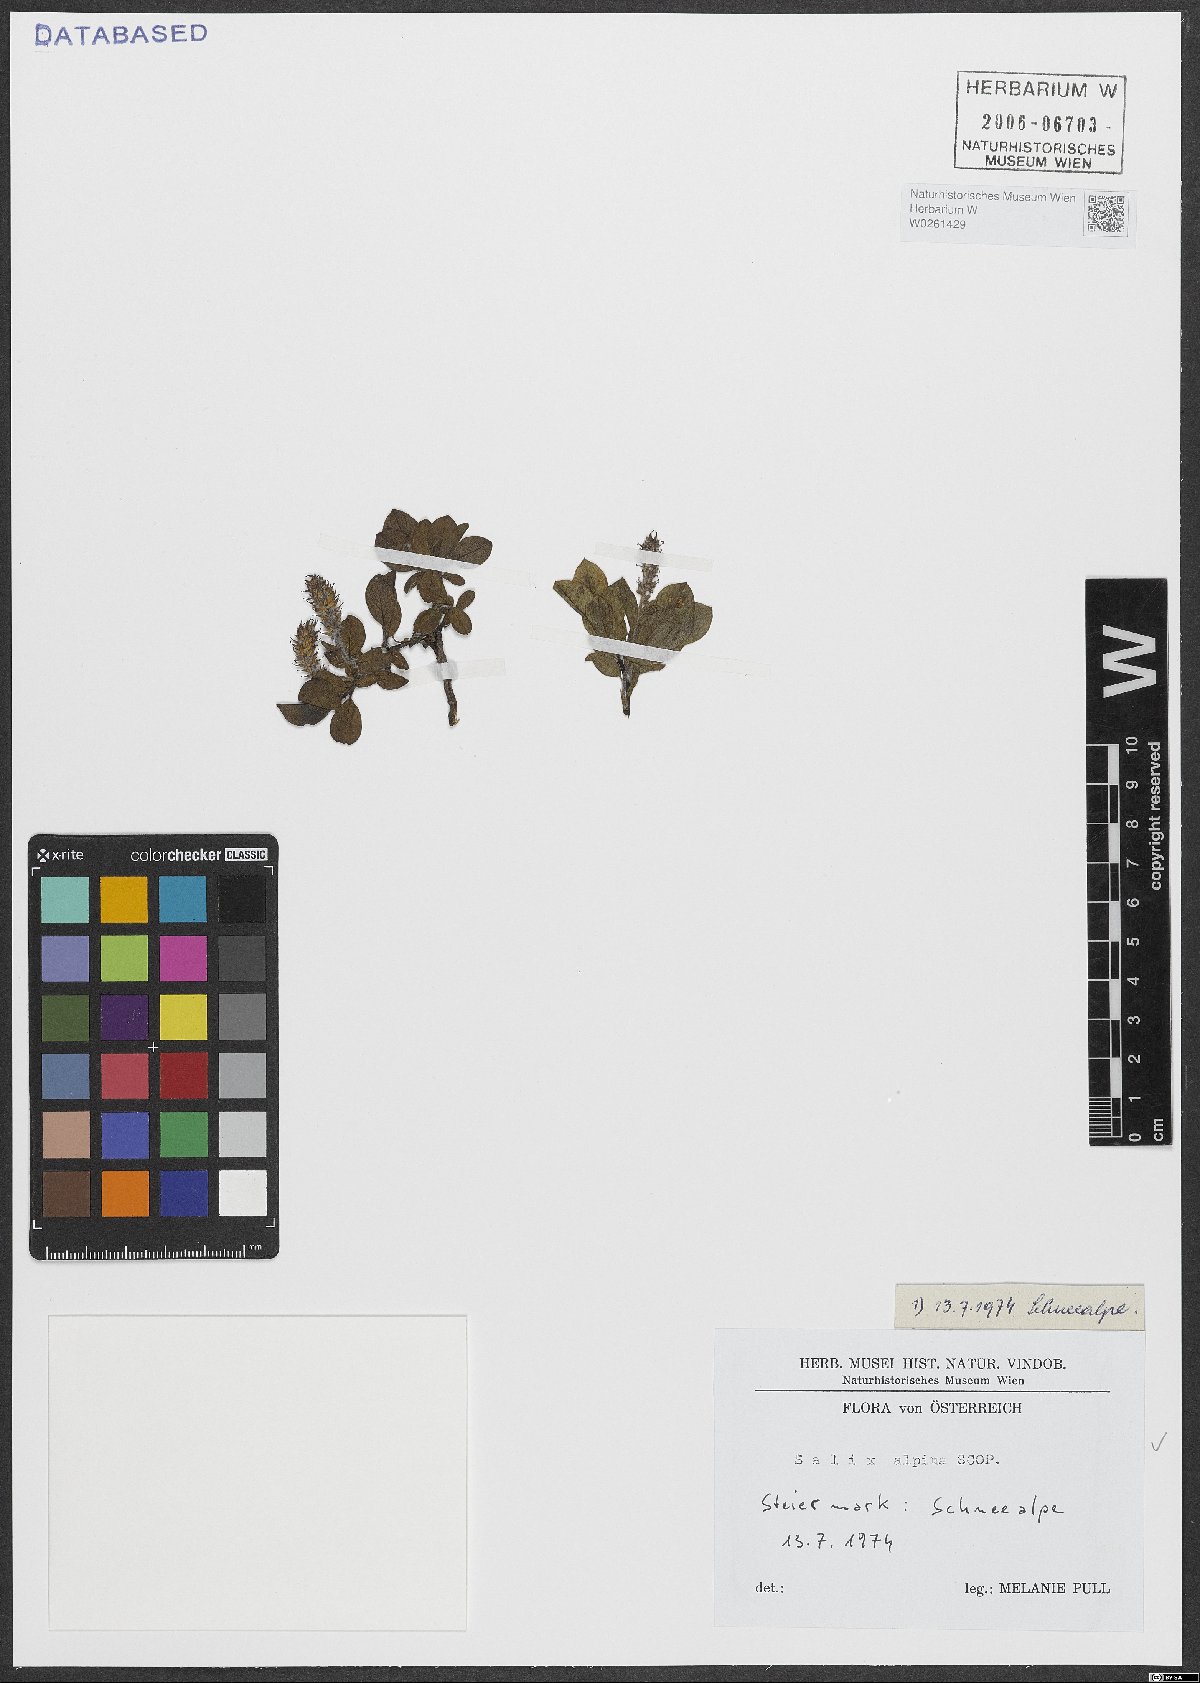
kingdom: Plantae
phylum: Tracheophyta
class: Magnoliopsida
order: Malpighiales
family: Salicaceae
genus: Salix
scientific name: Salix alpina
